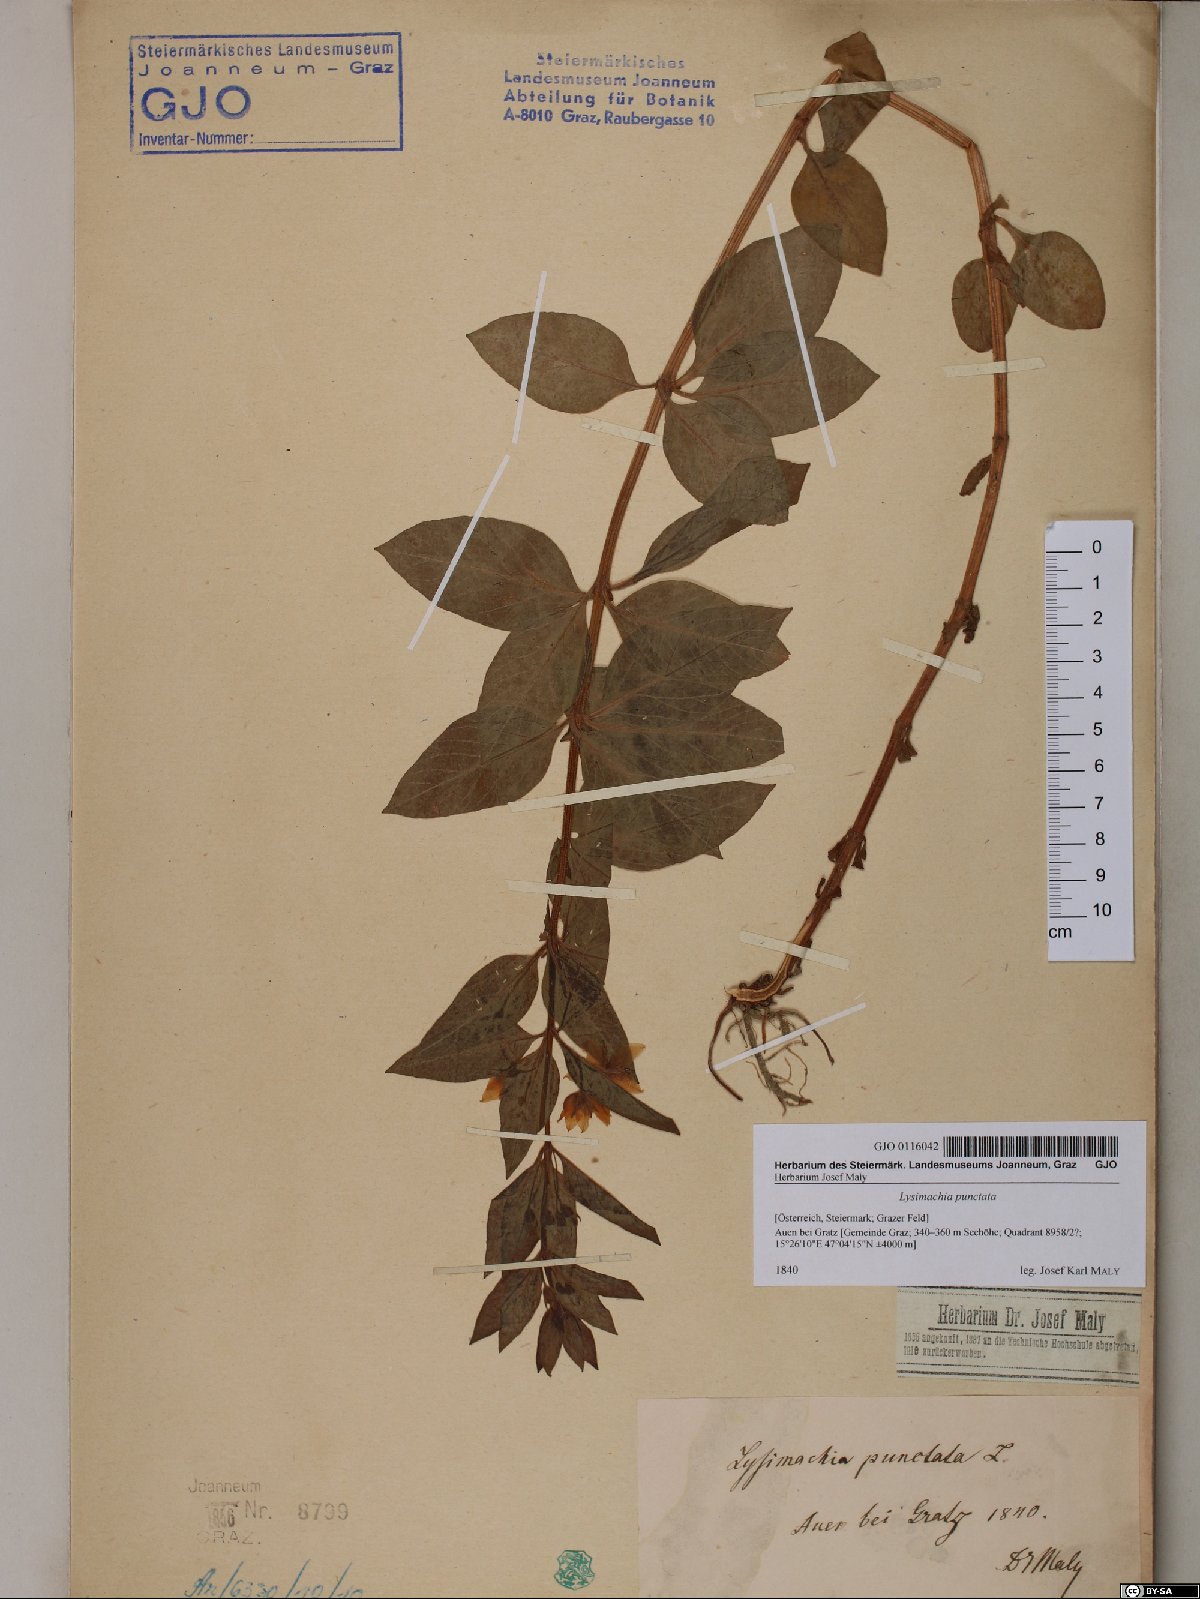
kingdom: Plantae
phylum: Tracheophyta
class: Magnoliopsida
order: Ericales
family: Primulaceae
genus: Lysimachia
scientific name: Lysimachia punctata
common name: Dotted loosestrife
